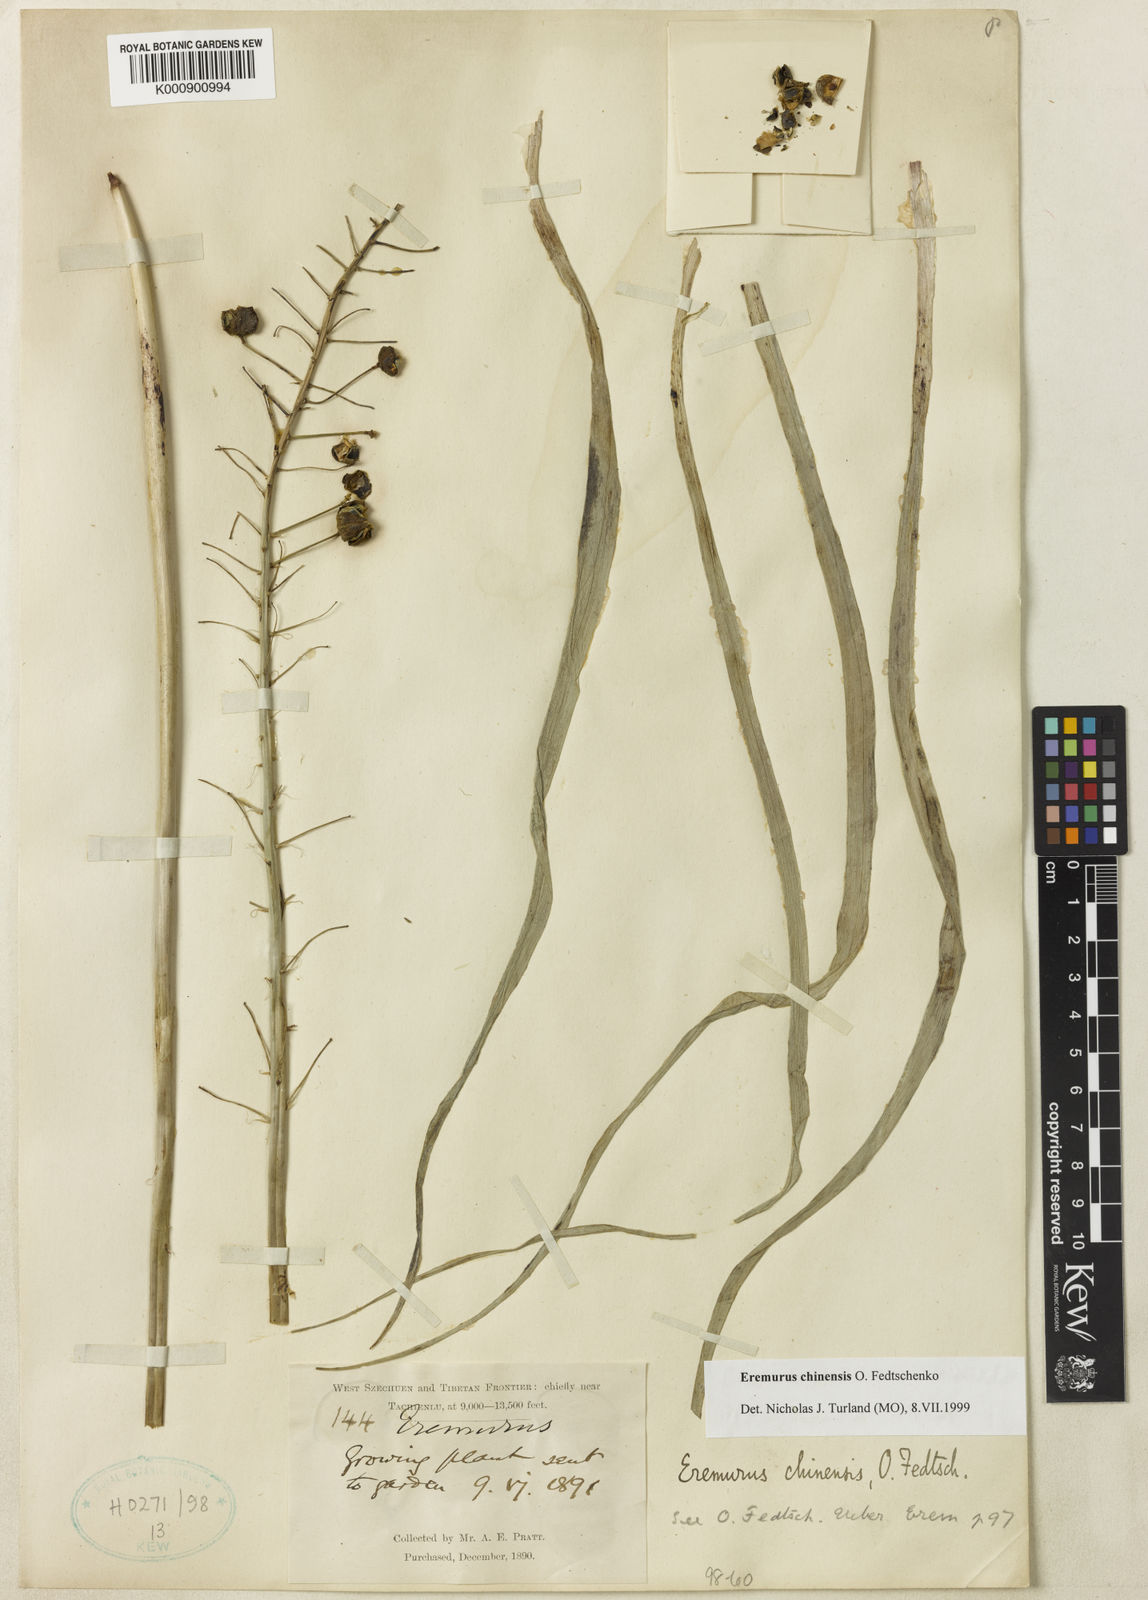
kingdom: Plantae
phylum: Tracheophyta
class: Liliopsida
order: Asparagales
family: Asphodelaceae
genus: Eremurus
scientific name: Eremurus chinensis
